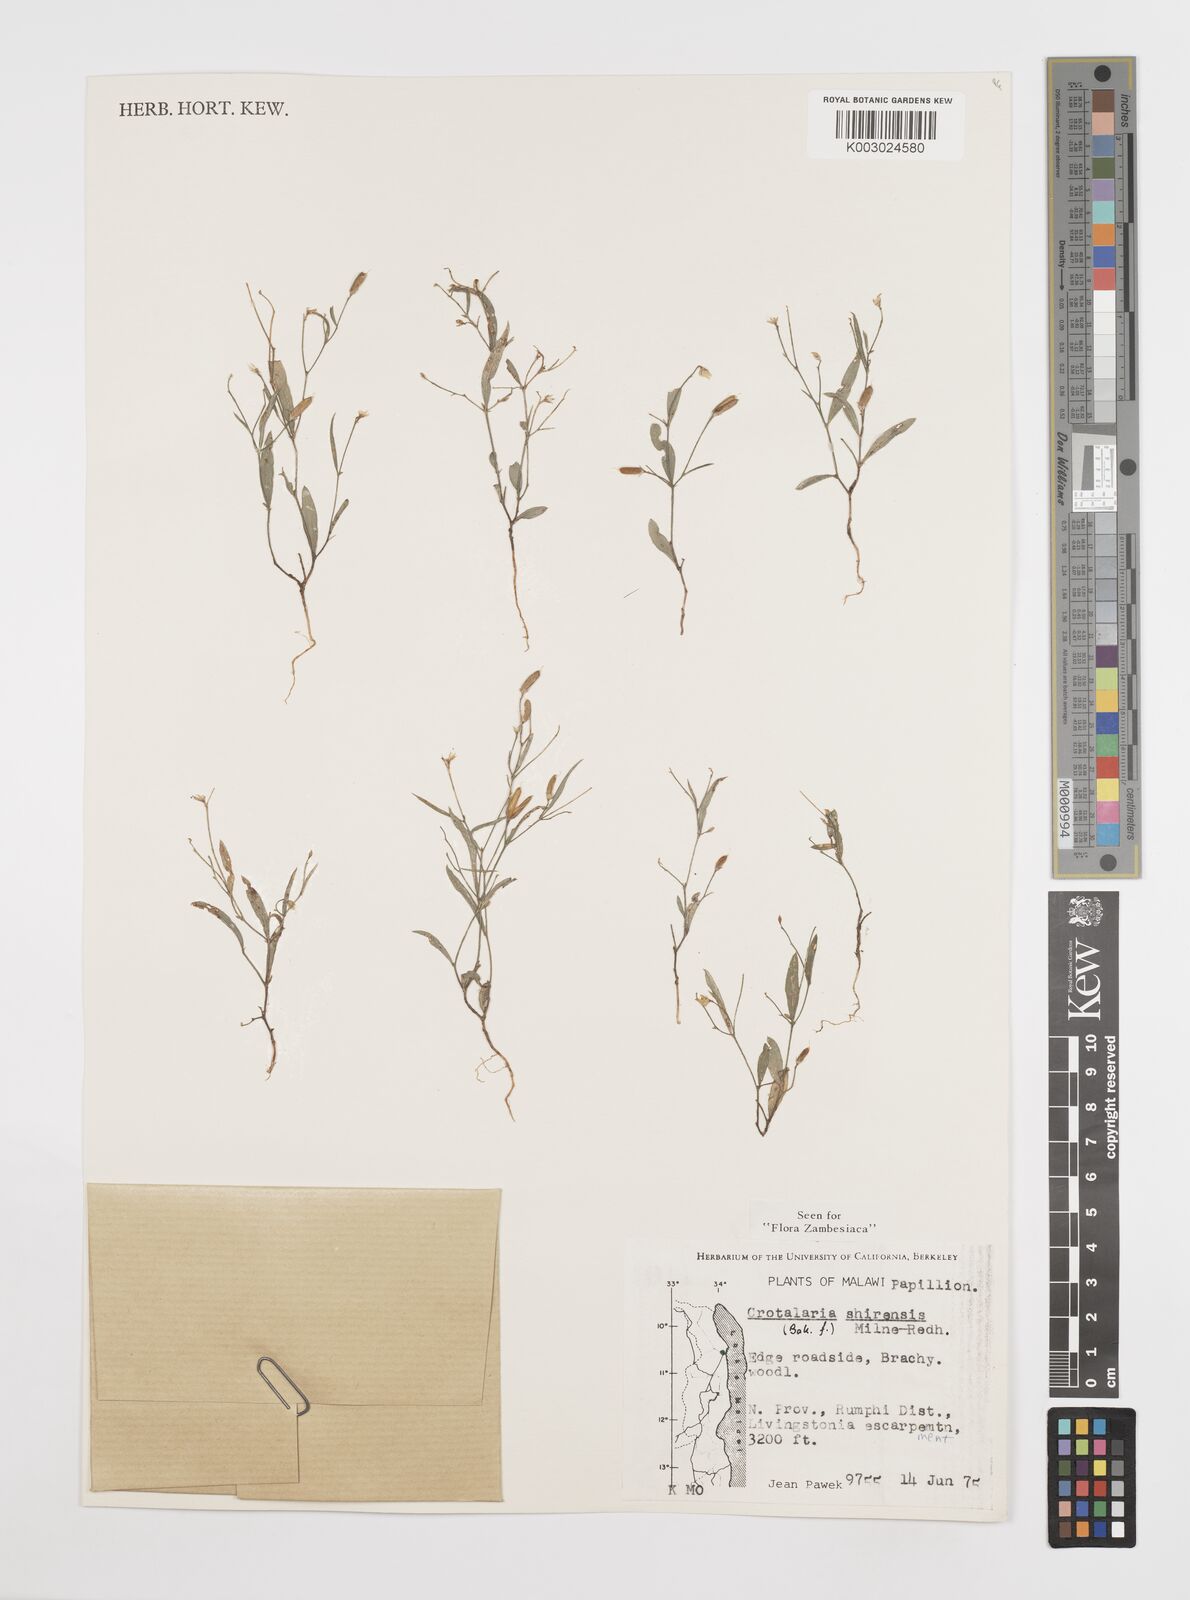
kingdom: Plantae
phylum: Tracheophyta
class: Magnoliopsida
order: Fabales
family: Fabaceae
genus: Crotalaria
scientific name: Crotalaria shirensis
